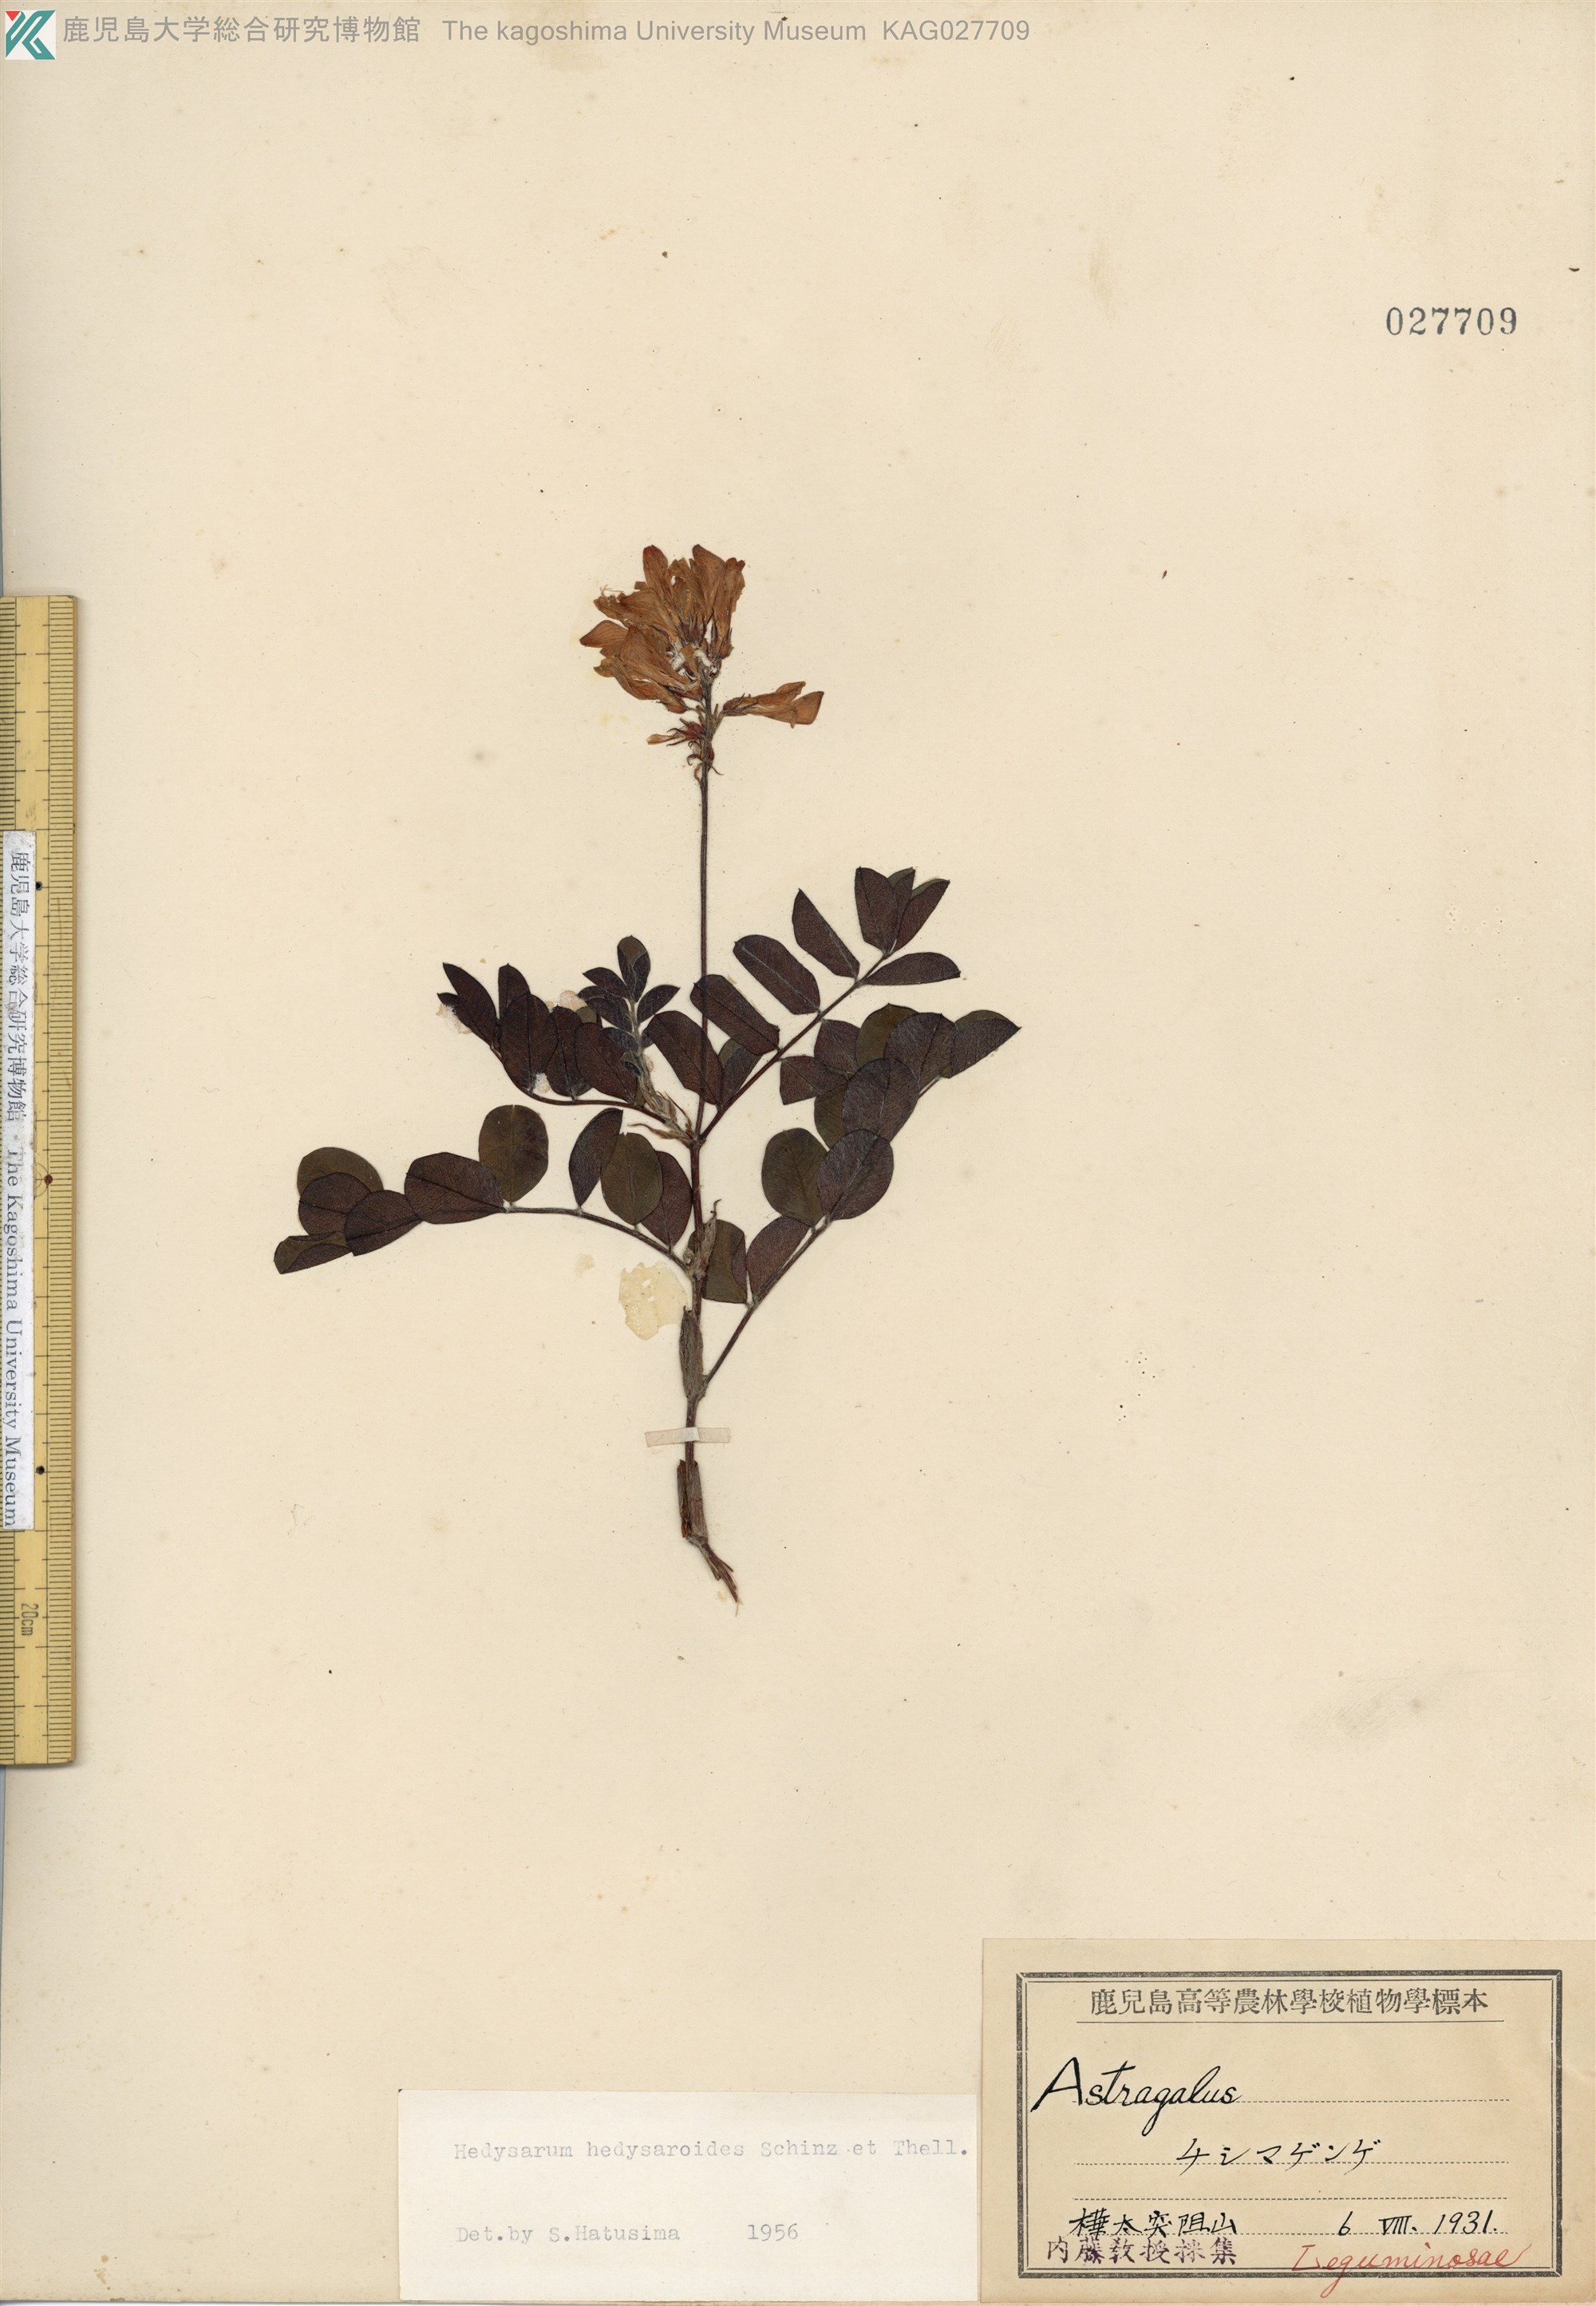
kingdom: Plantae
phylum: Tracheophyta
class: Magnoliopsida
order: Fabales
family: Fabaceae
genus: Hedysarum
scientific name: Hedysarum hedysaroides
